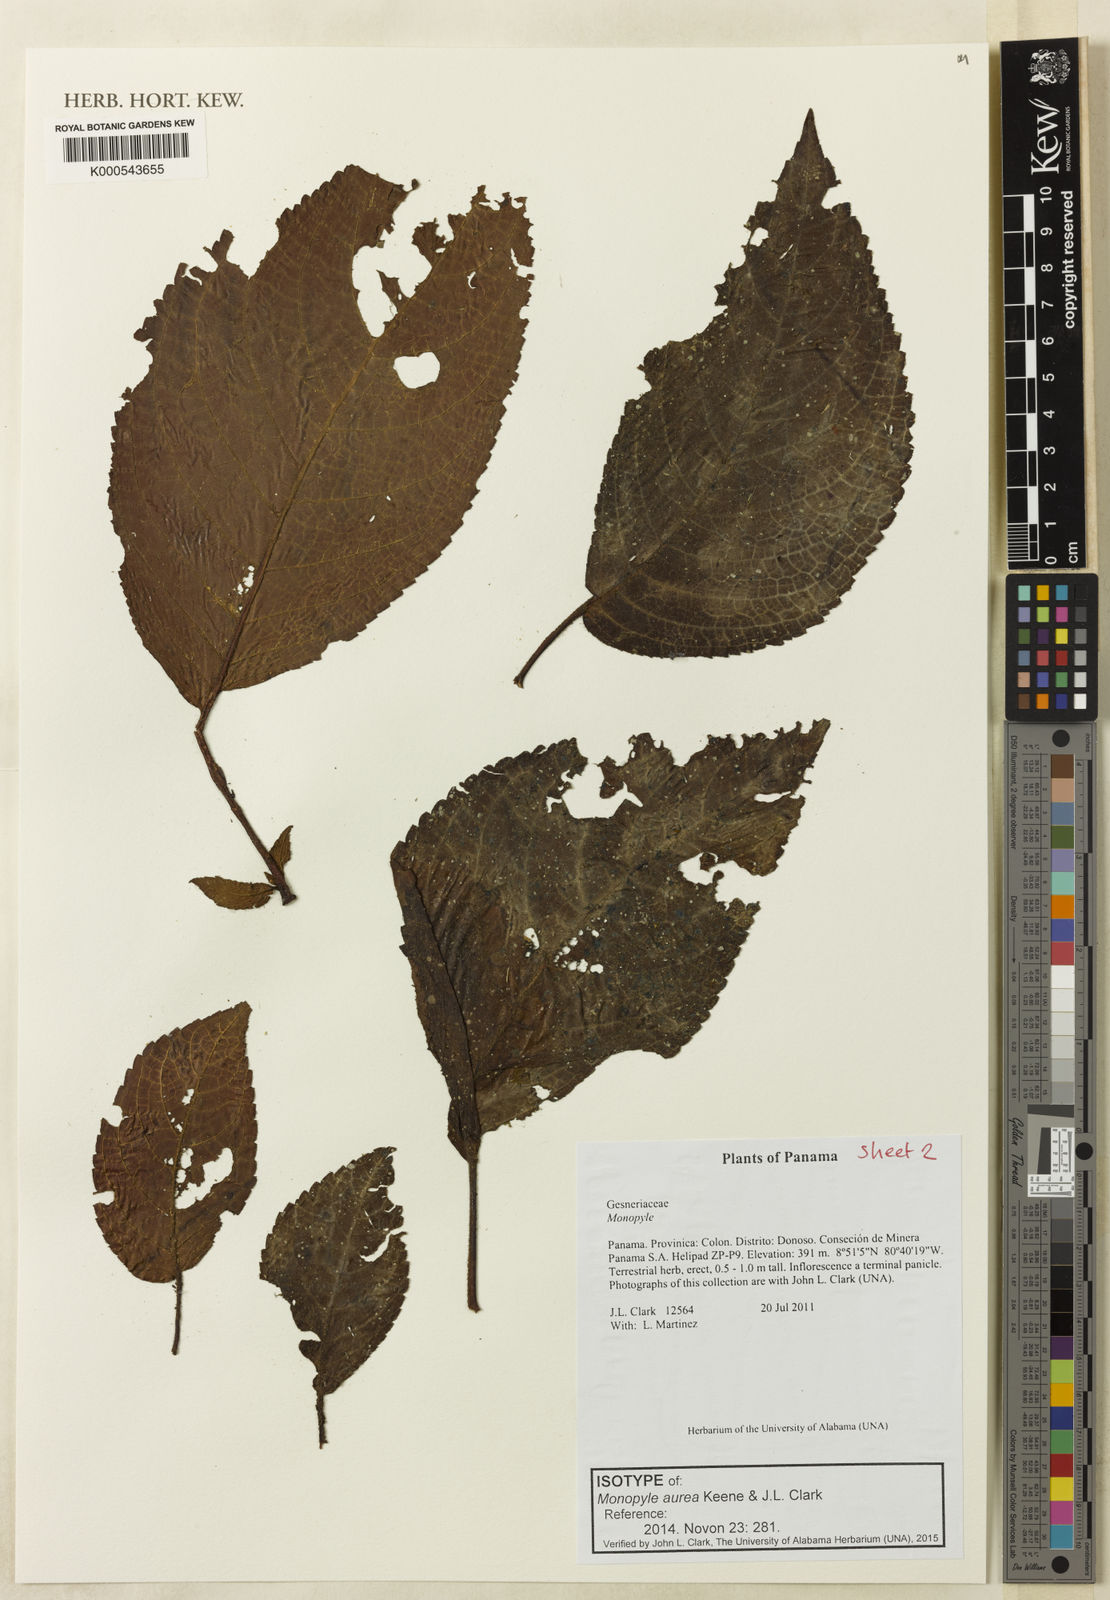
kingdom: Plantae
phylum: Tracheophyta
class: Magnoliopsida
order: Lamiales
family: Gesneriaceae
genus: Monopyle
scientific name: Monopyle aurea
